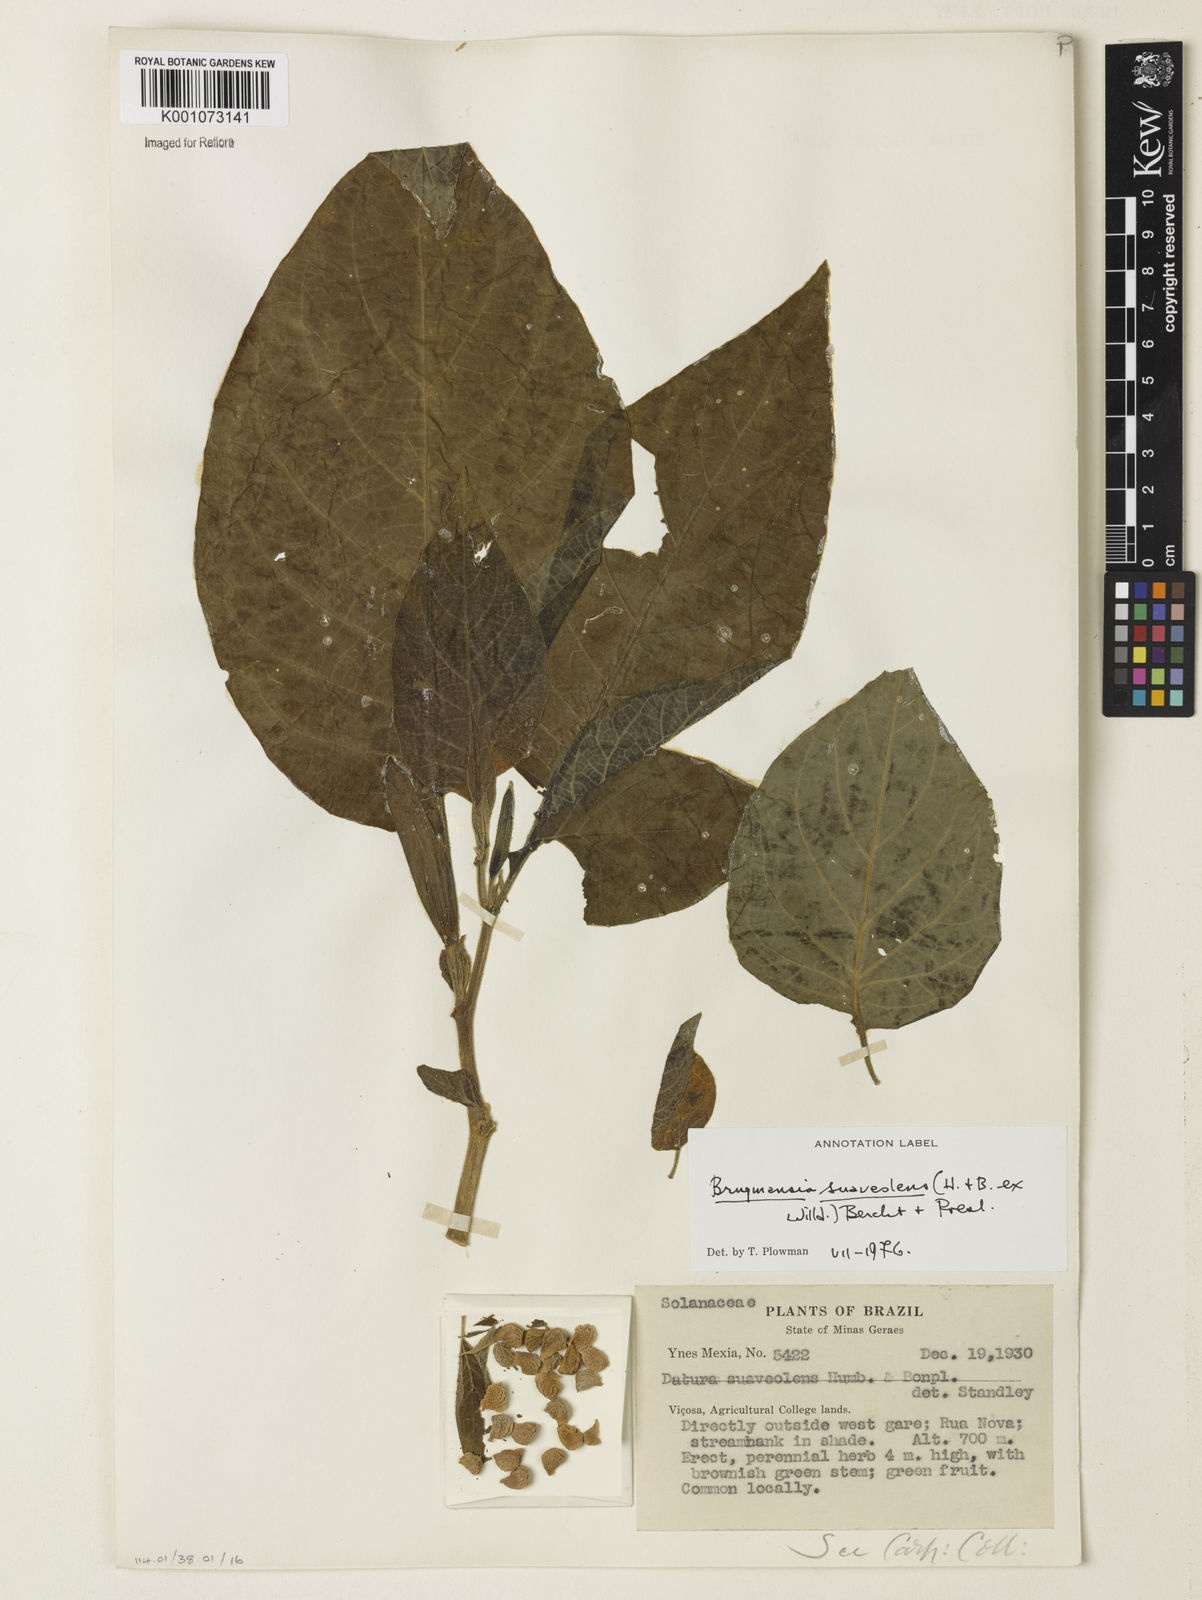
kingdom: Plantae
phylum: Tracheophyta
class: Magnoliopsida
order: Solanales
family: Solanaceae
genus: Brugmansia
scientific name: Brugmansia
